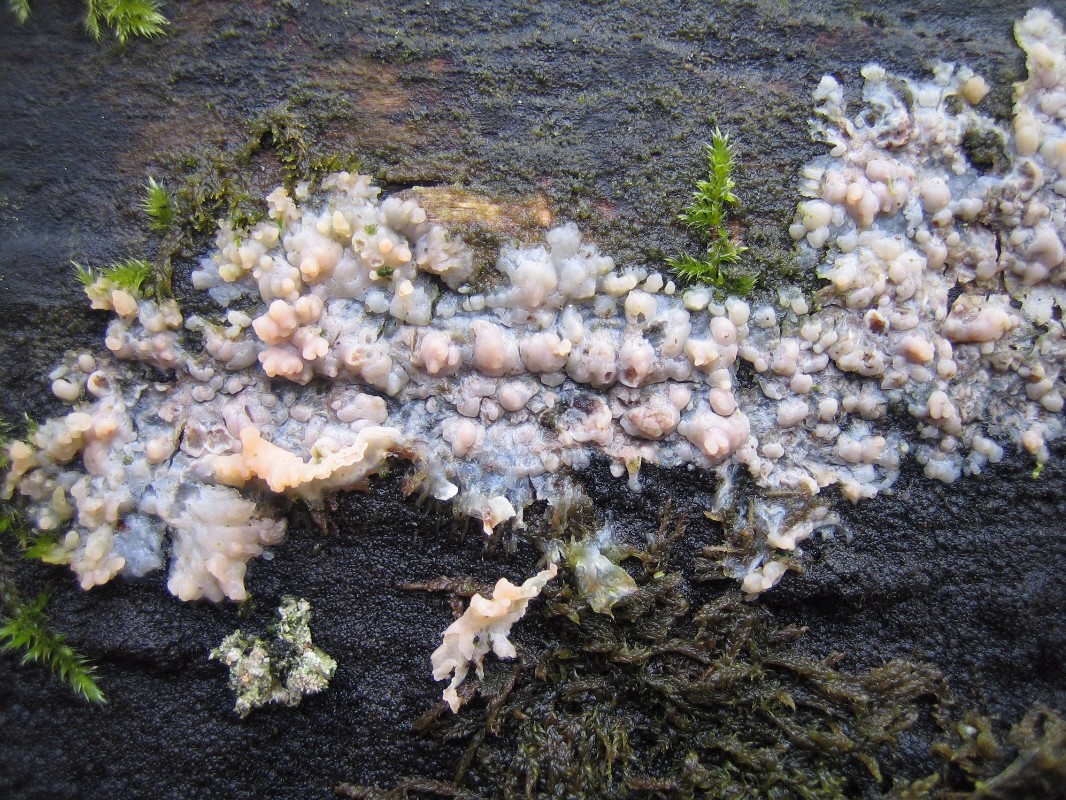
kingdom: Fungi
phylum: Basidiomycota
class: Agaricomycetes
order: Polyporales
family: Meruliaceae
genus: Phlebia
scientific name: Phlebia radiata
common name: stråle-åresvamp
